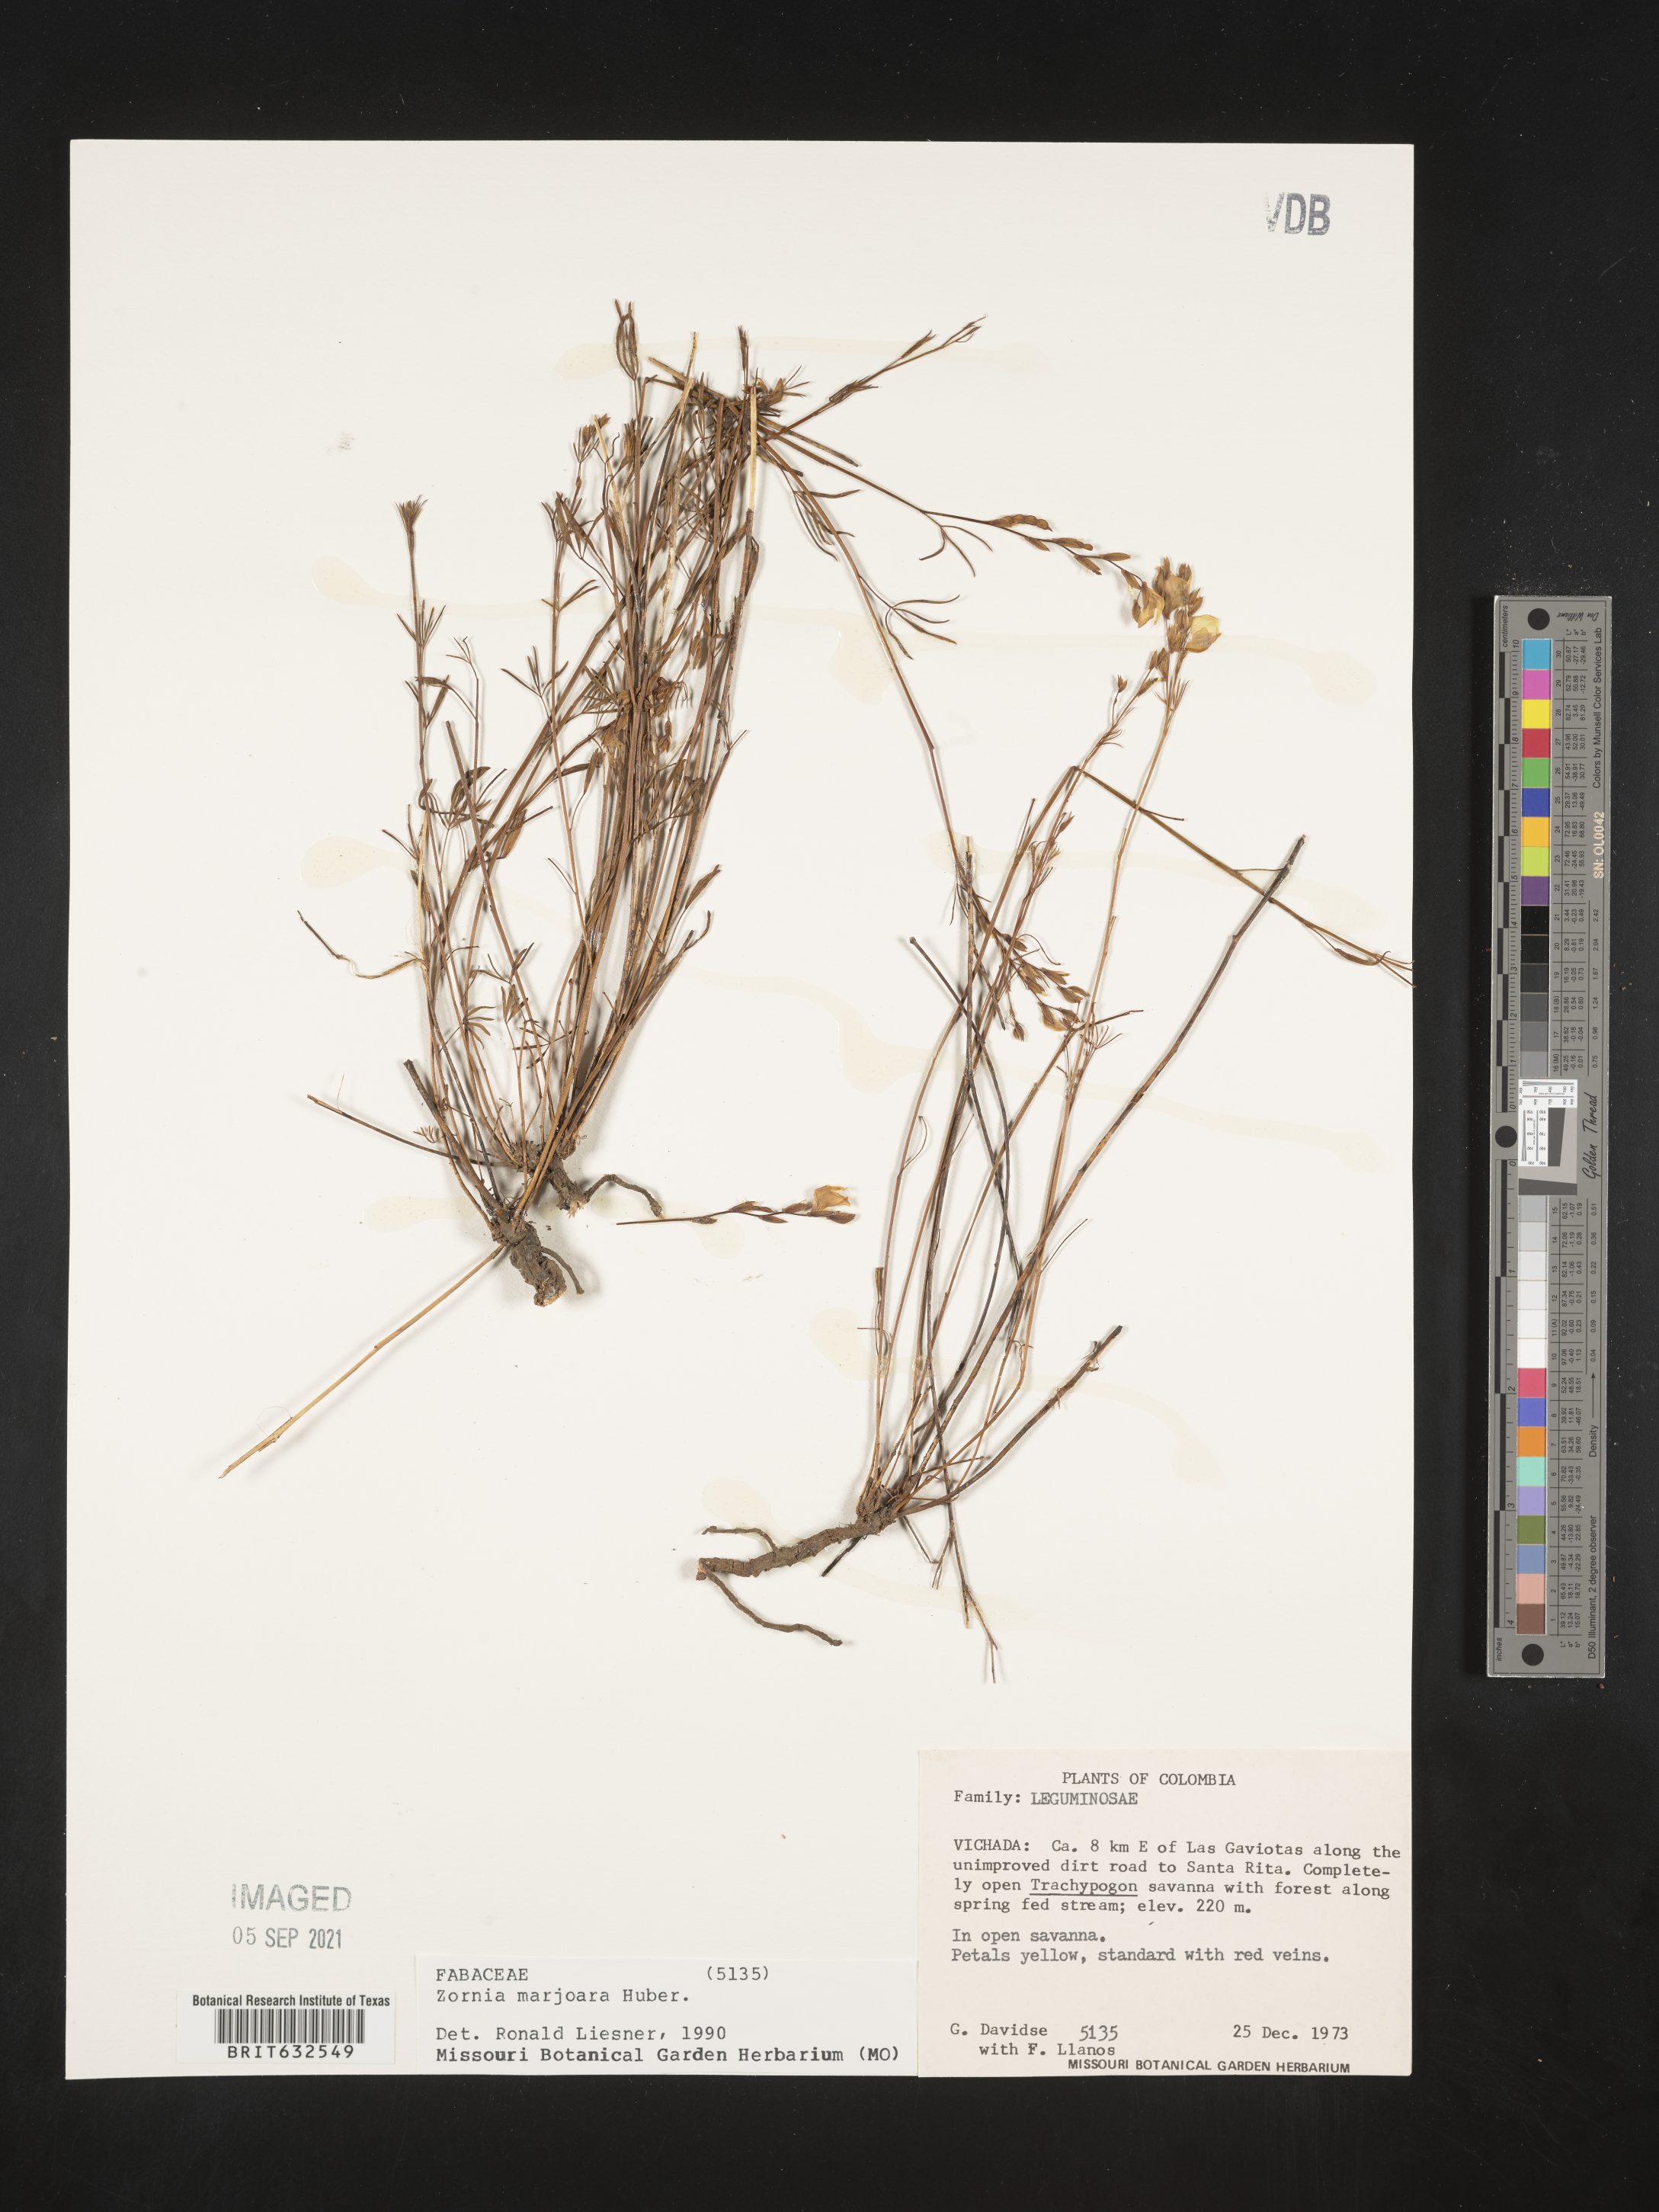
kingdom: Plantae
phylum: Tracheophyta
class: Magnoliopsida
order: Fabales
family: Fabaceae
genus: Zornia
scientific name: Zornia
